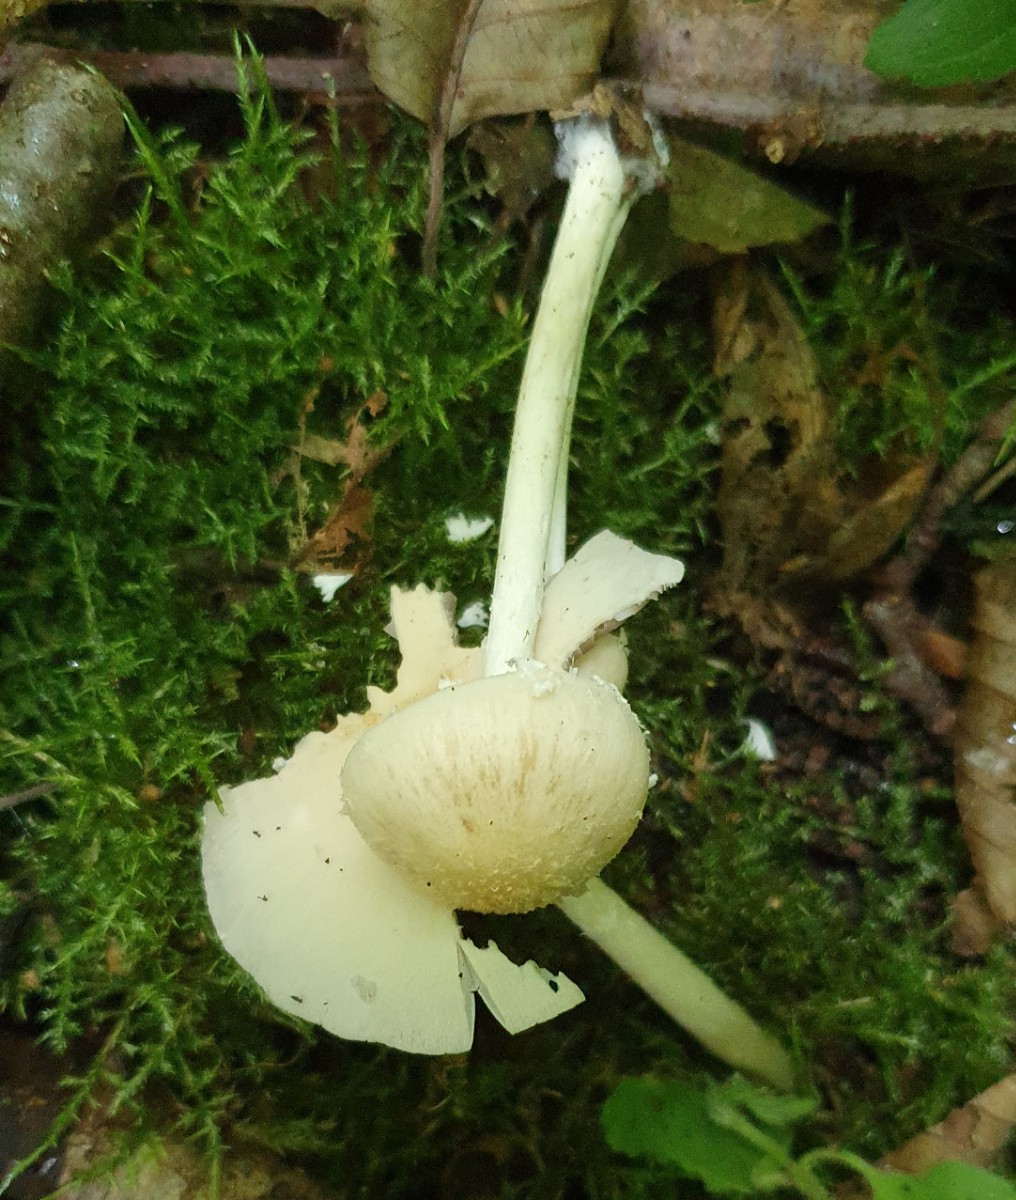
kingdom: Fungi
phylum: Basidiomycota
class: Agaricomycetes
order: Agaricales
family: Psathyrellaceae
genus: Candolleomyces
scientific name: Candolleomyces candolleanus
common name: Candolles mørkhat
